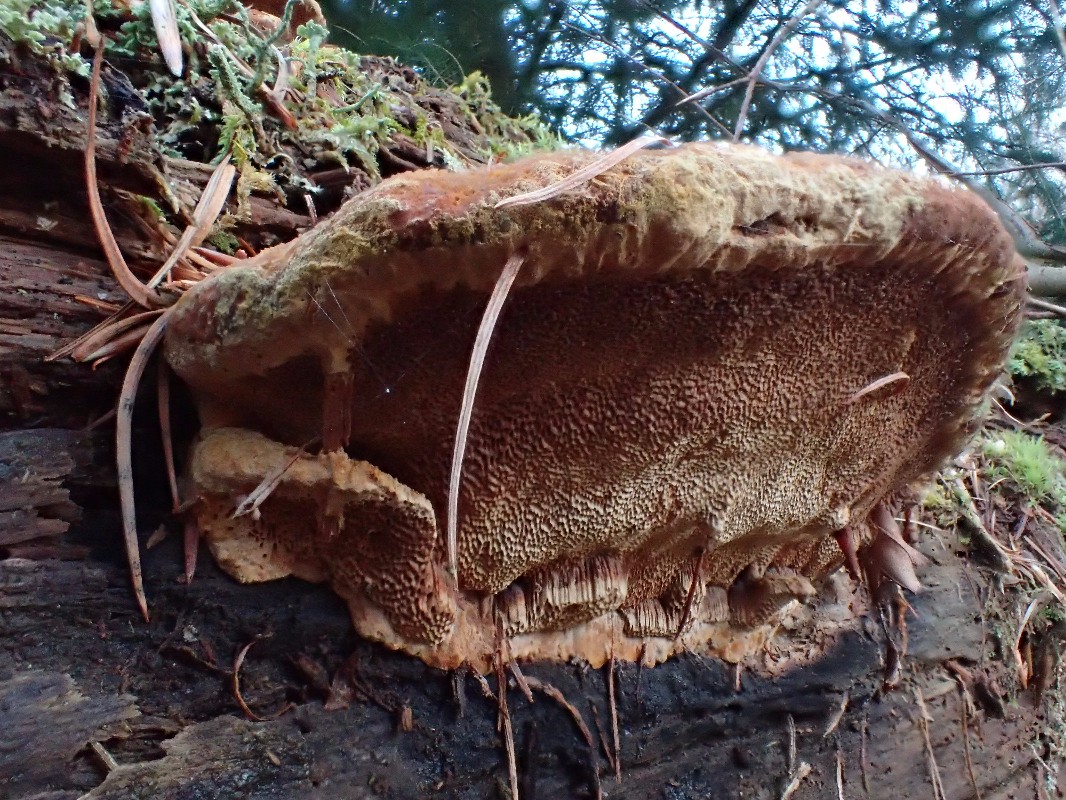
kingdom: Fungi
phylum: Basidiomycota
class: Agaricomycetes
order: Polyporales
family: Ischnodermataceae
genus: Ischnoderma
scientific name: Ischnoderma benzoinum
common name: gran-tjæreporesvamp
